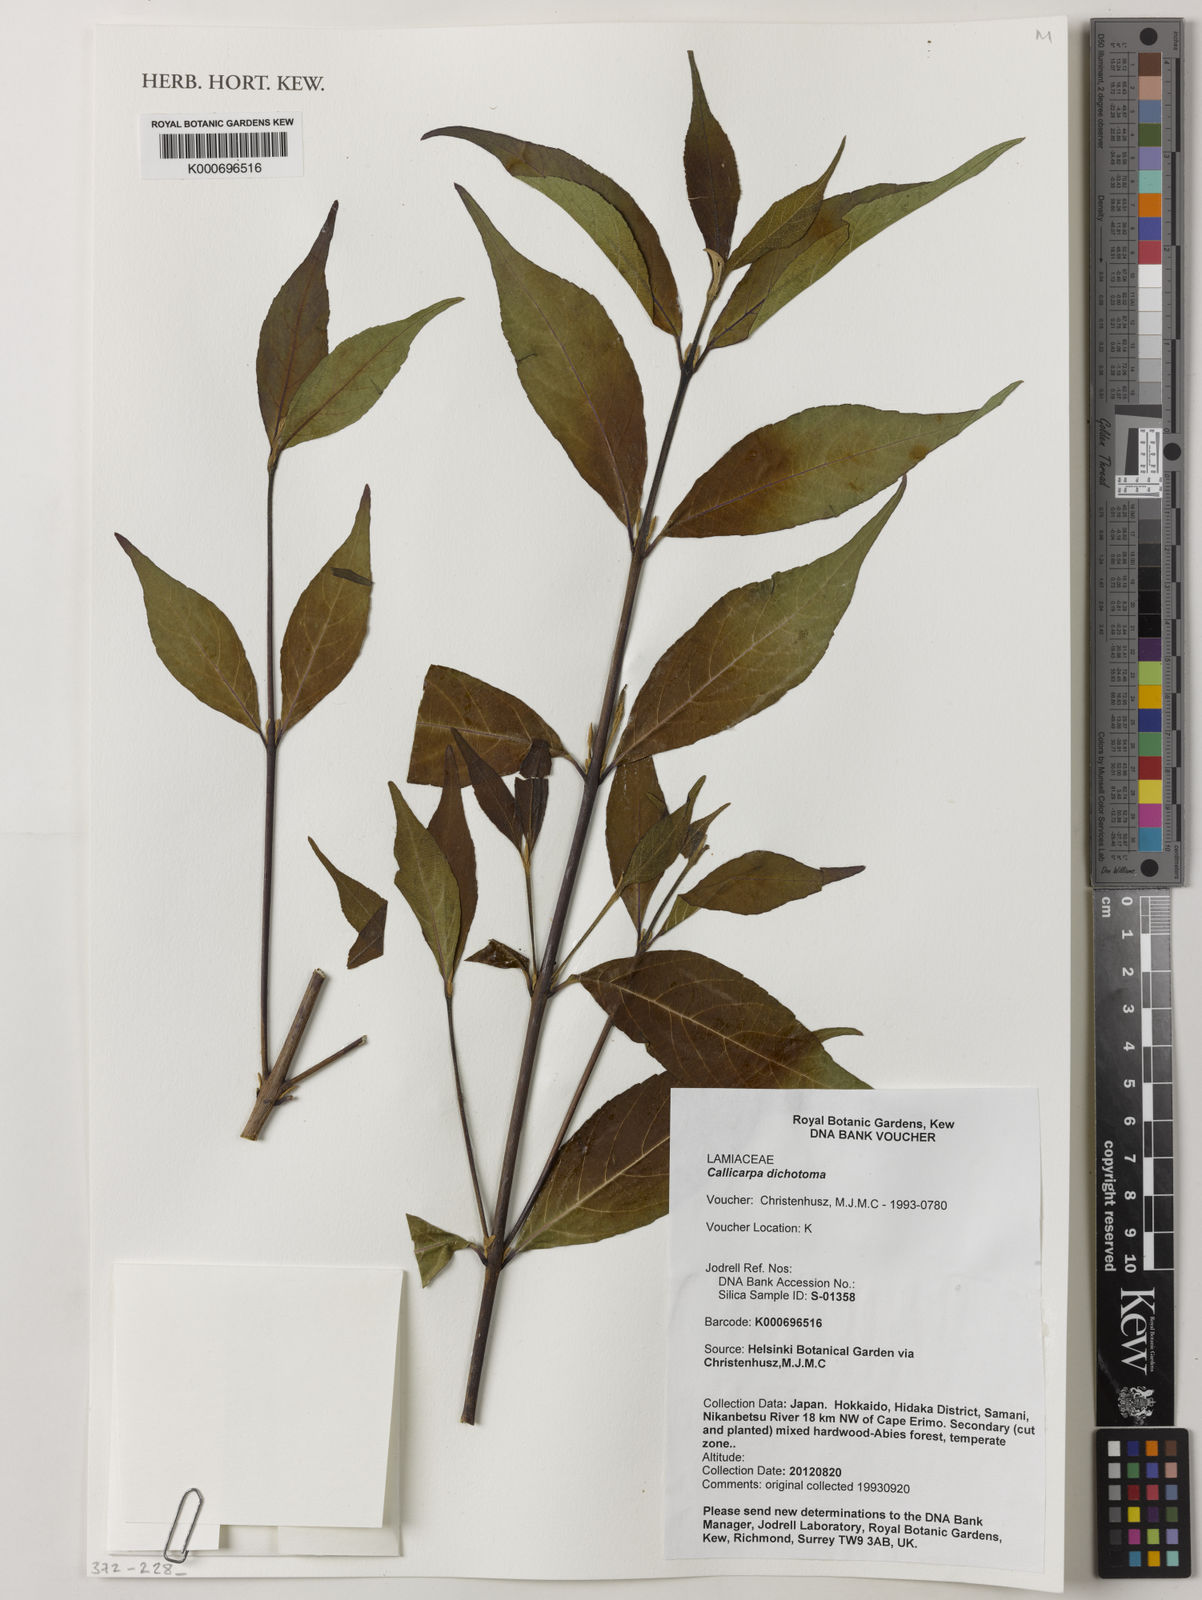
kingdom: Plantae
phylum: Tracheophyta
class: Magnoliopsida
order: Lamiales
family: Lamiaceae
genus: Callicarpa
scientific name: Callicarpa dichotoma
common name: Purple beauty-berry
